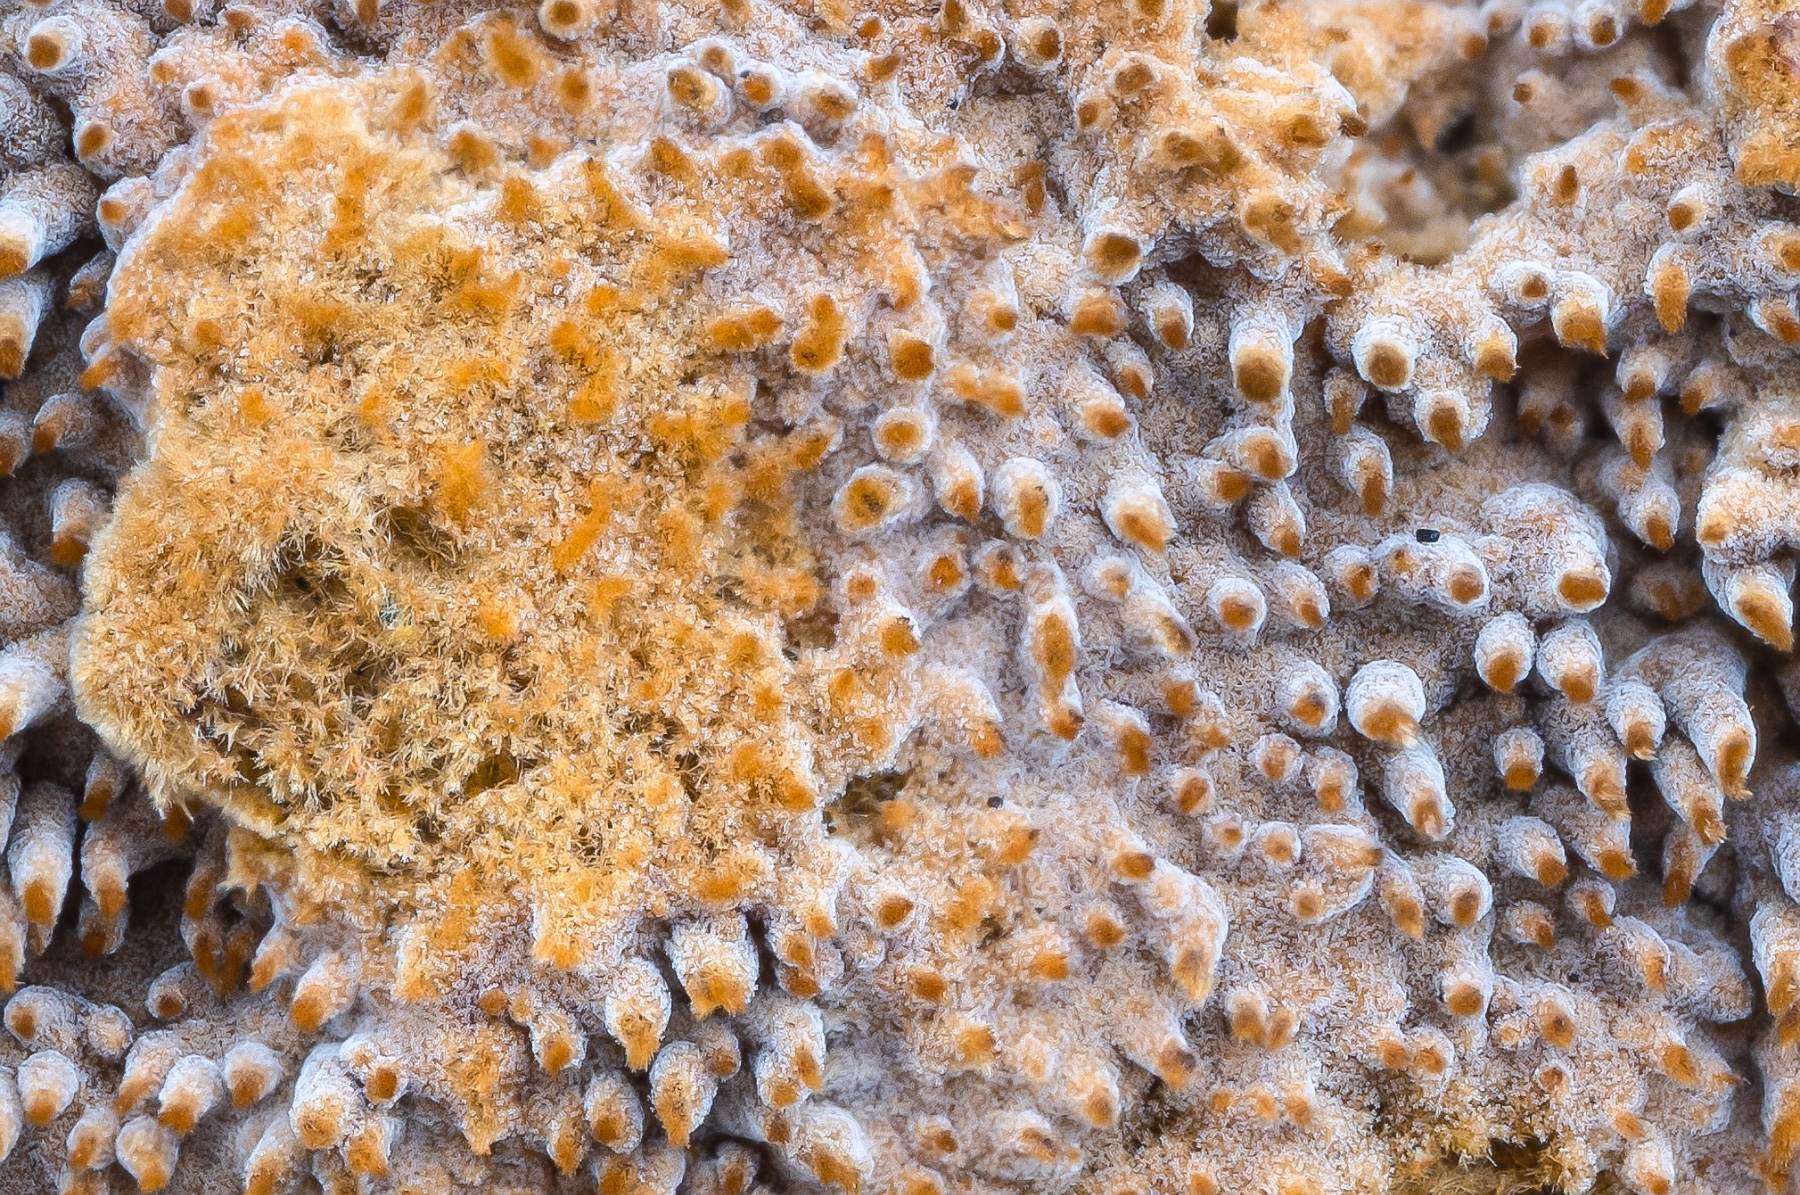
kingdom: Fungi
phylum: Basidiomycota
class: Agaricomycetes
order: Thelephorales
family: Thelephoraceae
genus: Odontia
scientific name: Odontia ferruginea
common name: pigget frynsehinde
